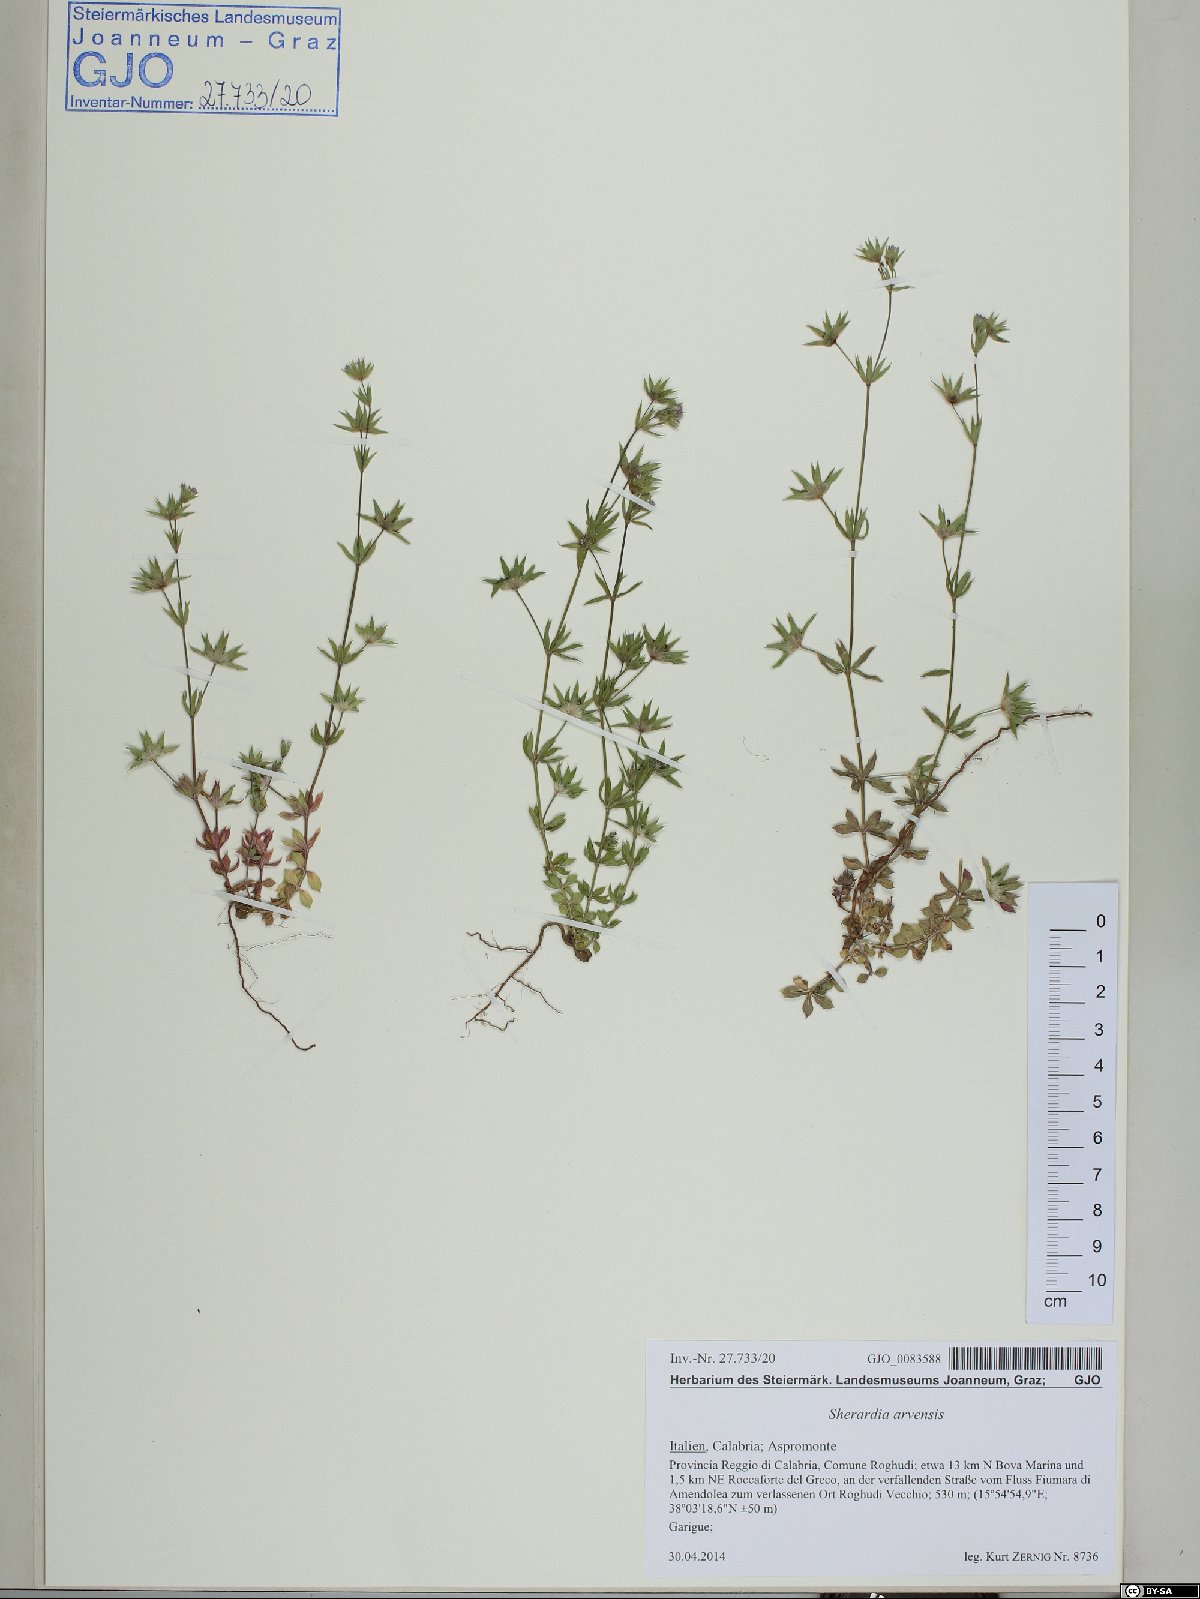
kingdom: Plantae
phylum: Tracheophyta
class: Magnoliopsida
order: Gentianales
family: Rubiaceae
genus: Sherardia
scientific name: Sherardia arvensis
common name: Field madder
